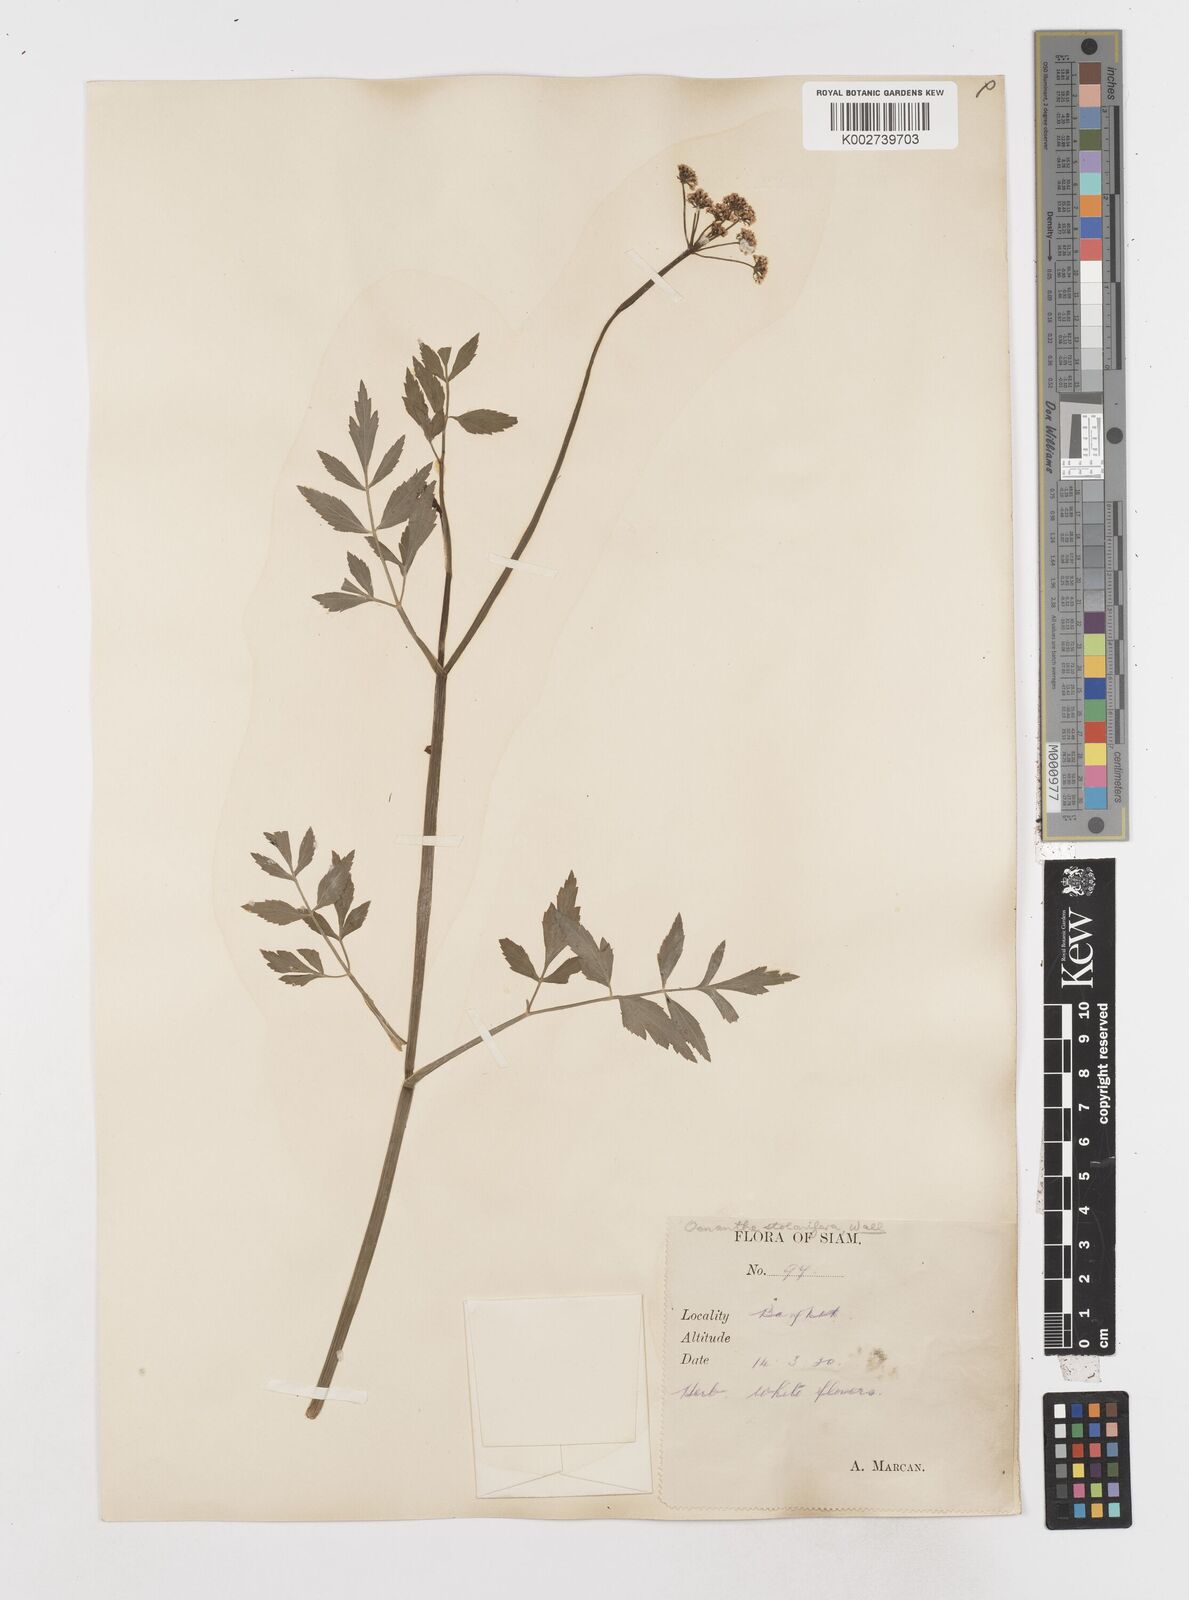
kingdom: Plantae
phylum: Tracheophyta
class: Magnoliopsida
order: Apiales
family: Apiaceae
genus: Oenanthe
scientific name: Oenanthe javanica
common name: Java water-dropwort
